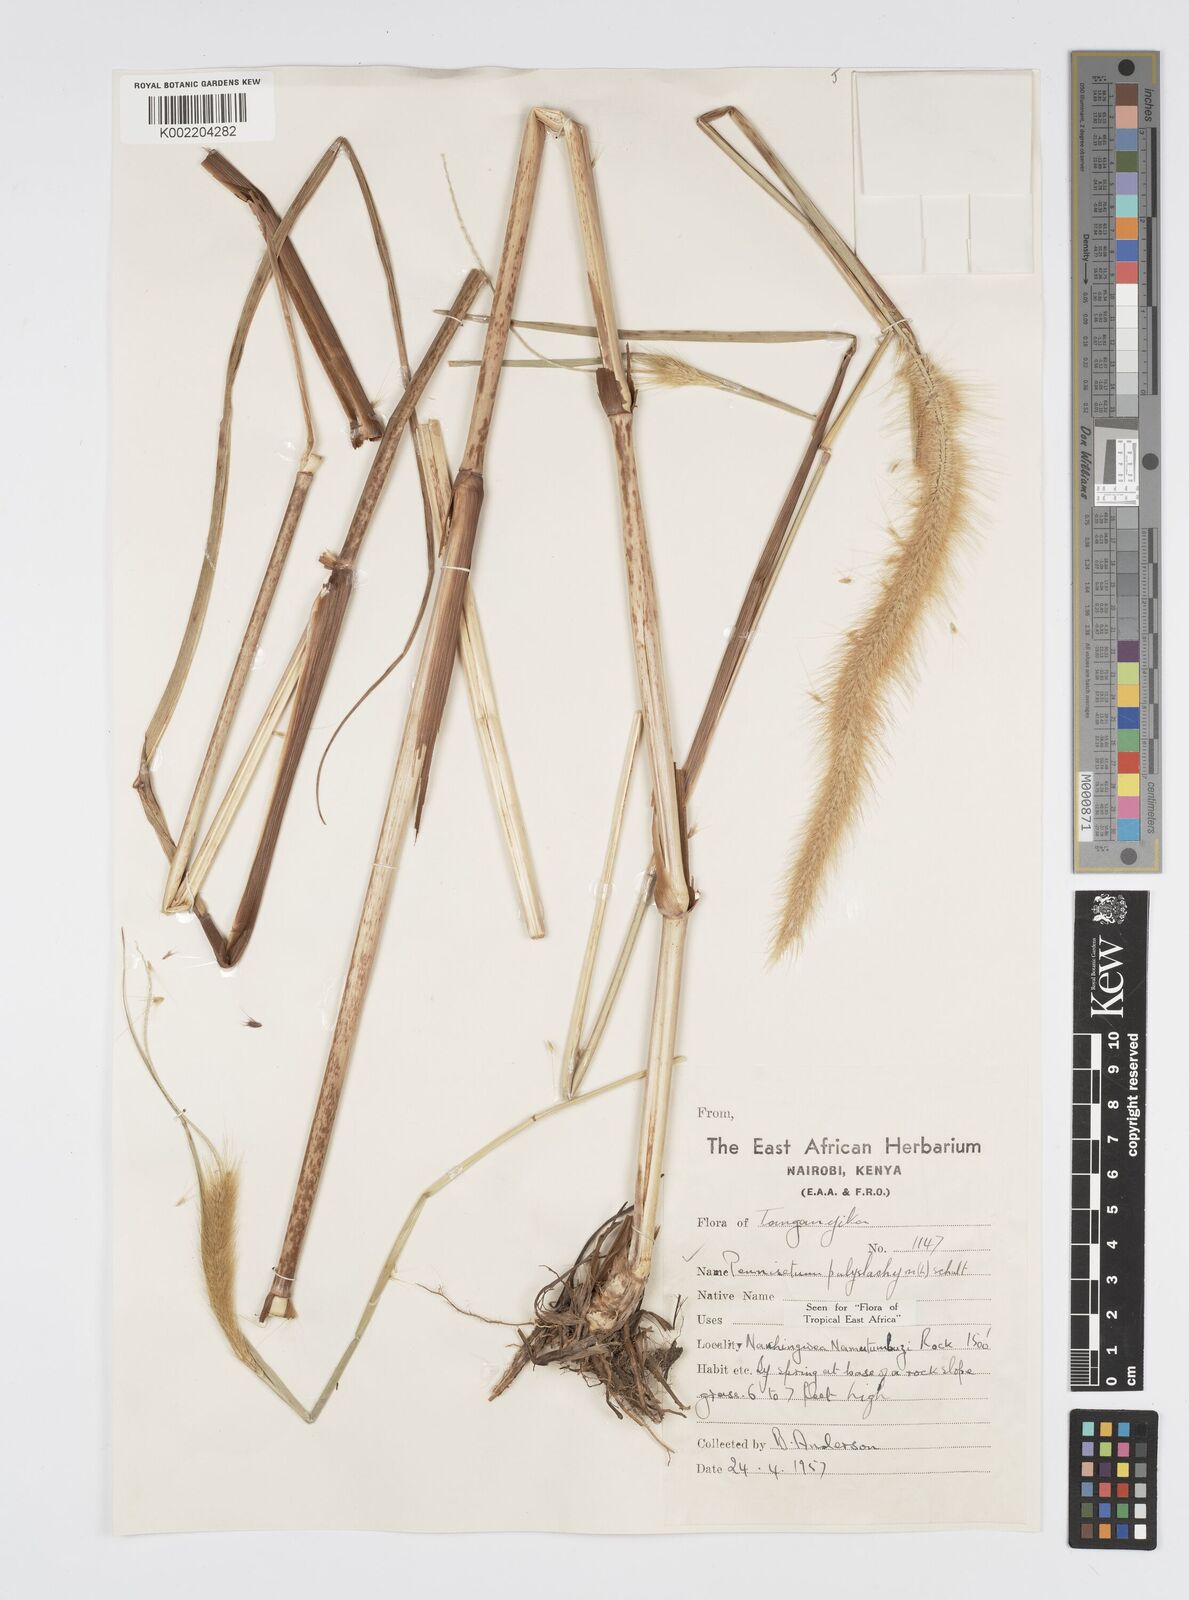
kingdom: Plantae
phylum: Tracheophyta
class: Liliopsida
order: Poales
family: Poaceae
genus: Setaria
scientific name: Setaria parviflora
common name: Knotroot bristle-grass
